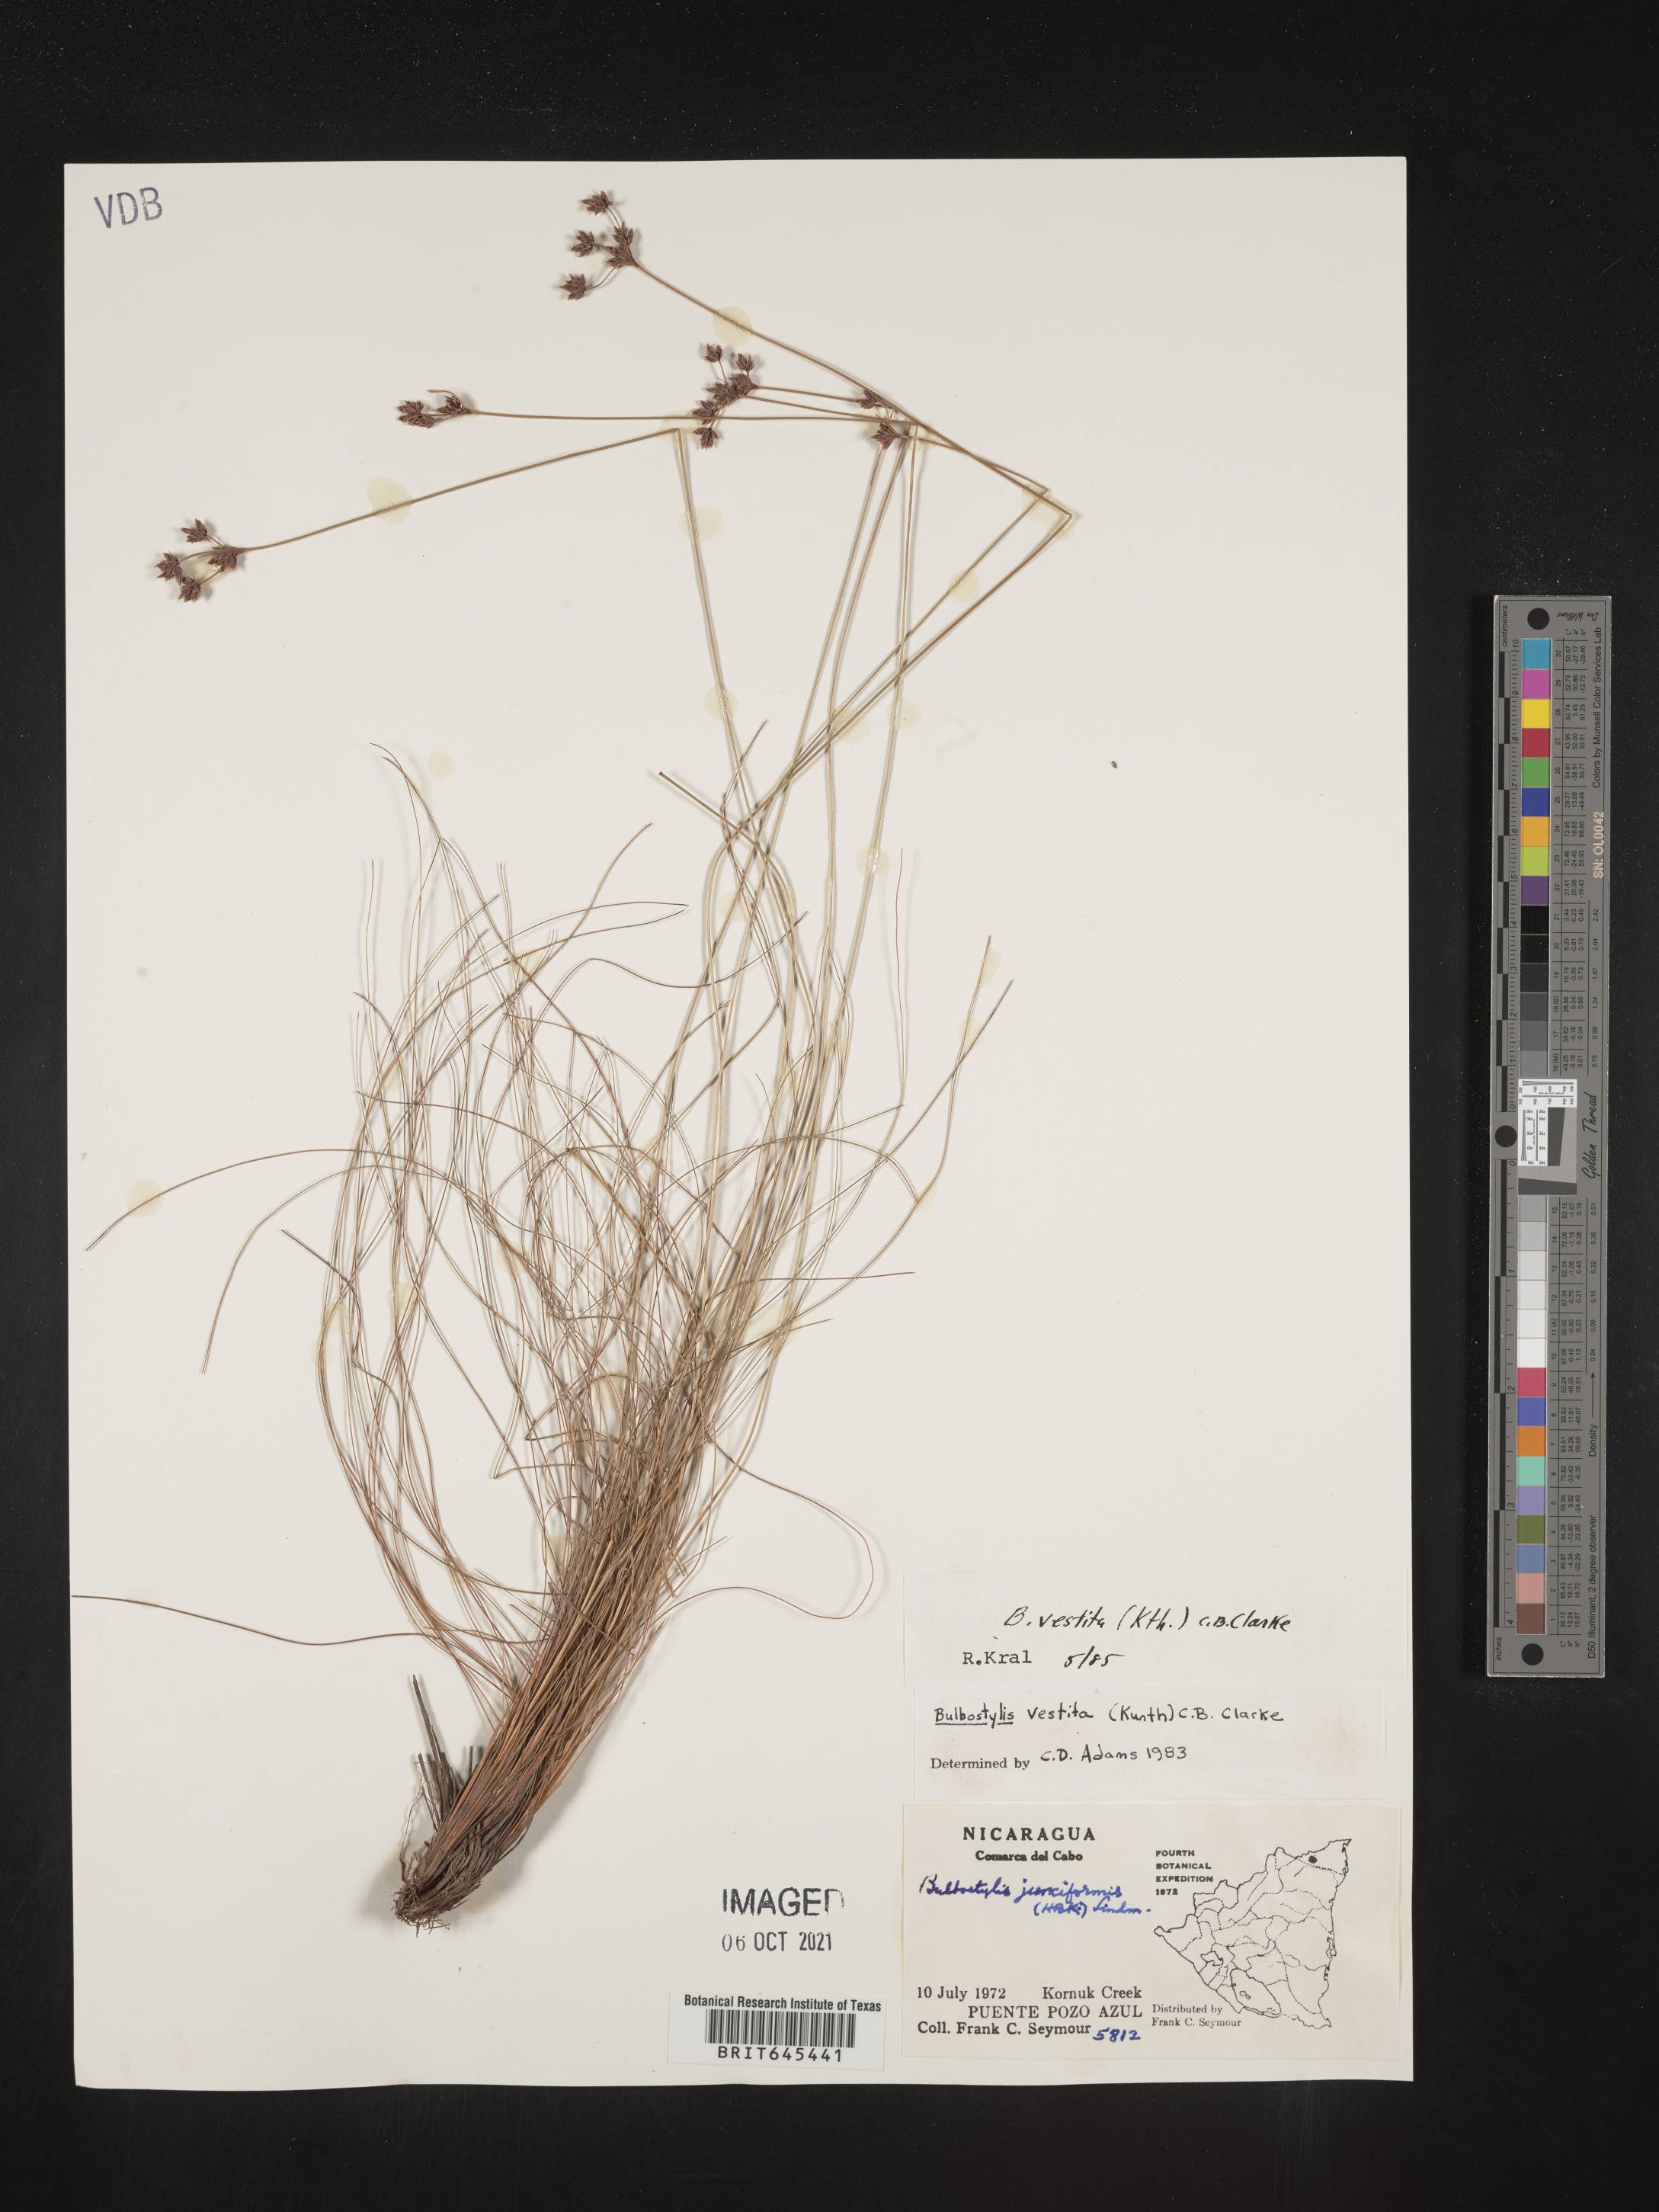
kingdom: Plantae
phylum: Tracheophyta
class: Liliopsida
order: Poales
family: Cyperaceae
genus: Bulbostylis
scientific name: Bulbostylis vestita
